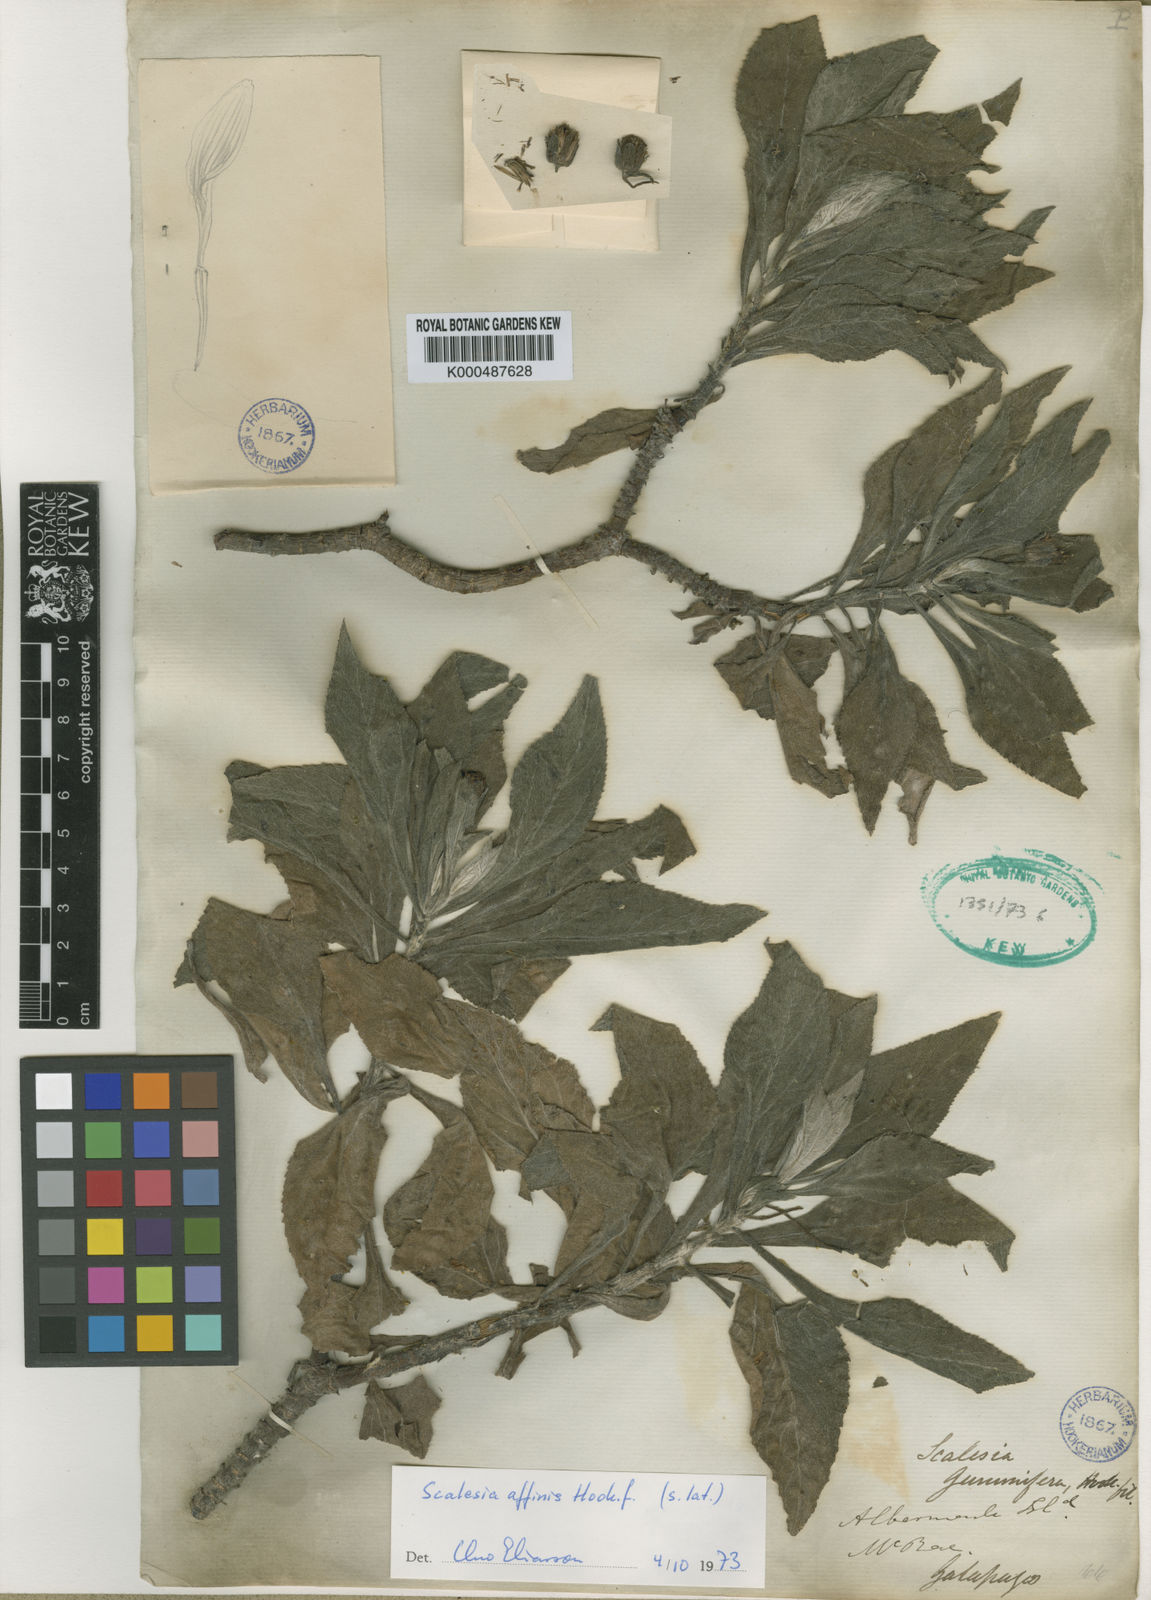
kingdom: Plantae
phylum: Tracheophyta
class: Magnoliopsida
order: Asterales
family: Asteraceae
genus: Scalesia
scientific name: Scalesia affinis
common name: Radiate-headed scalesia
